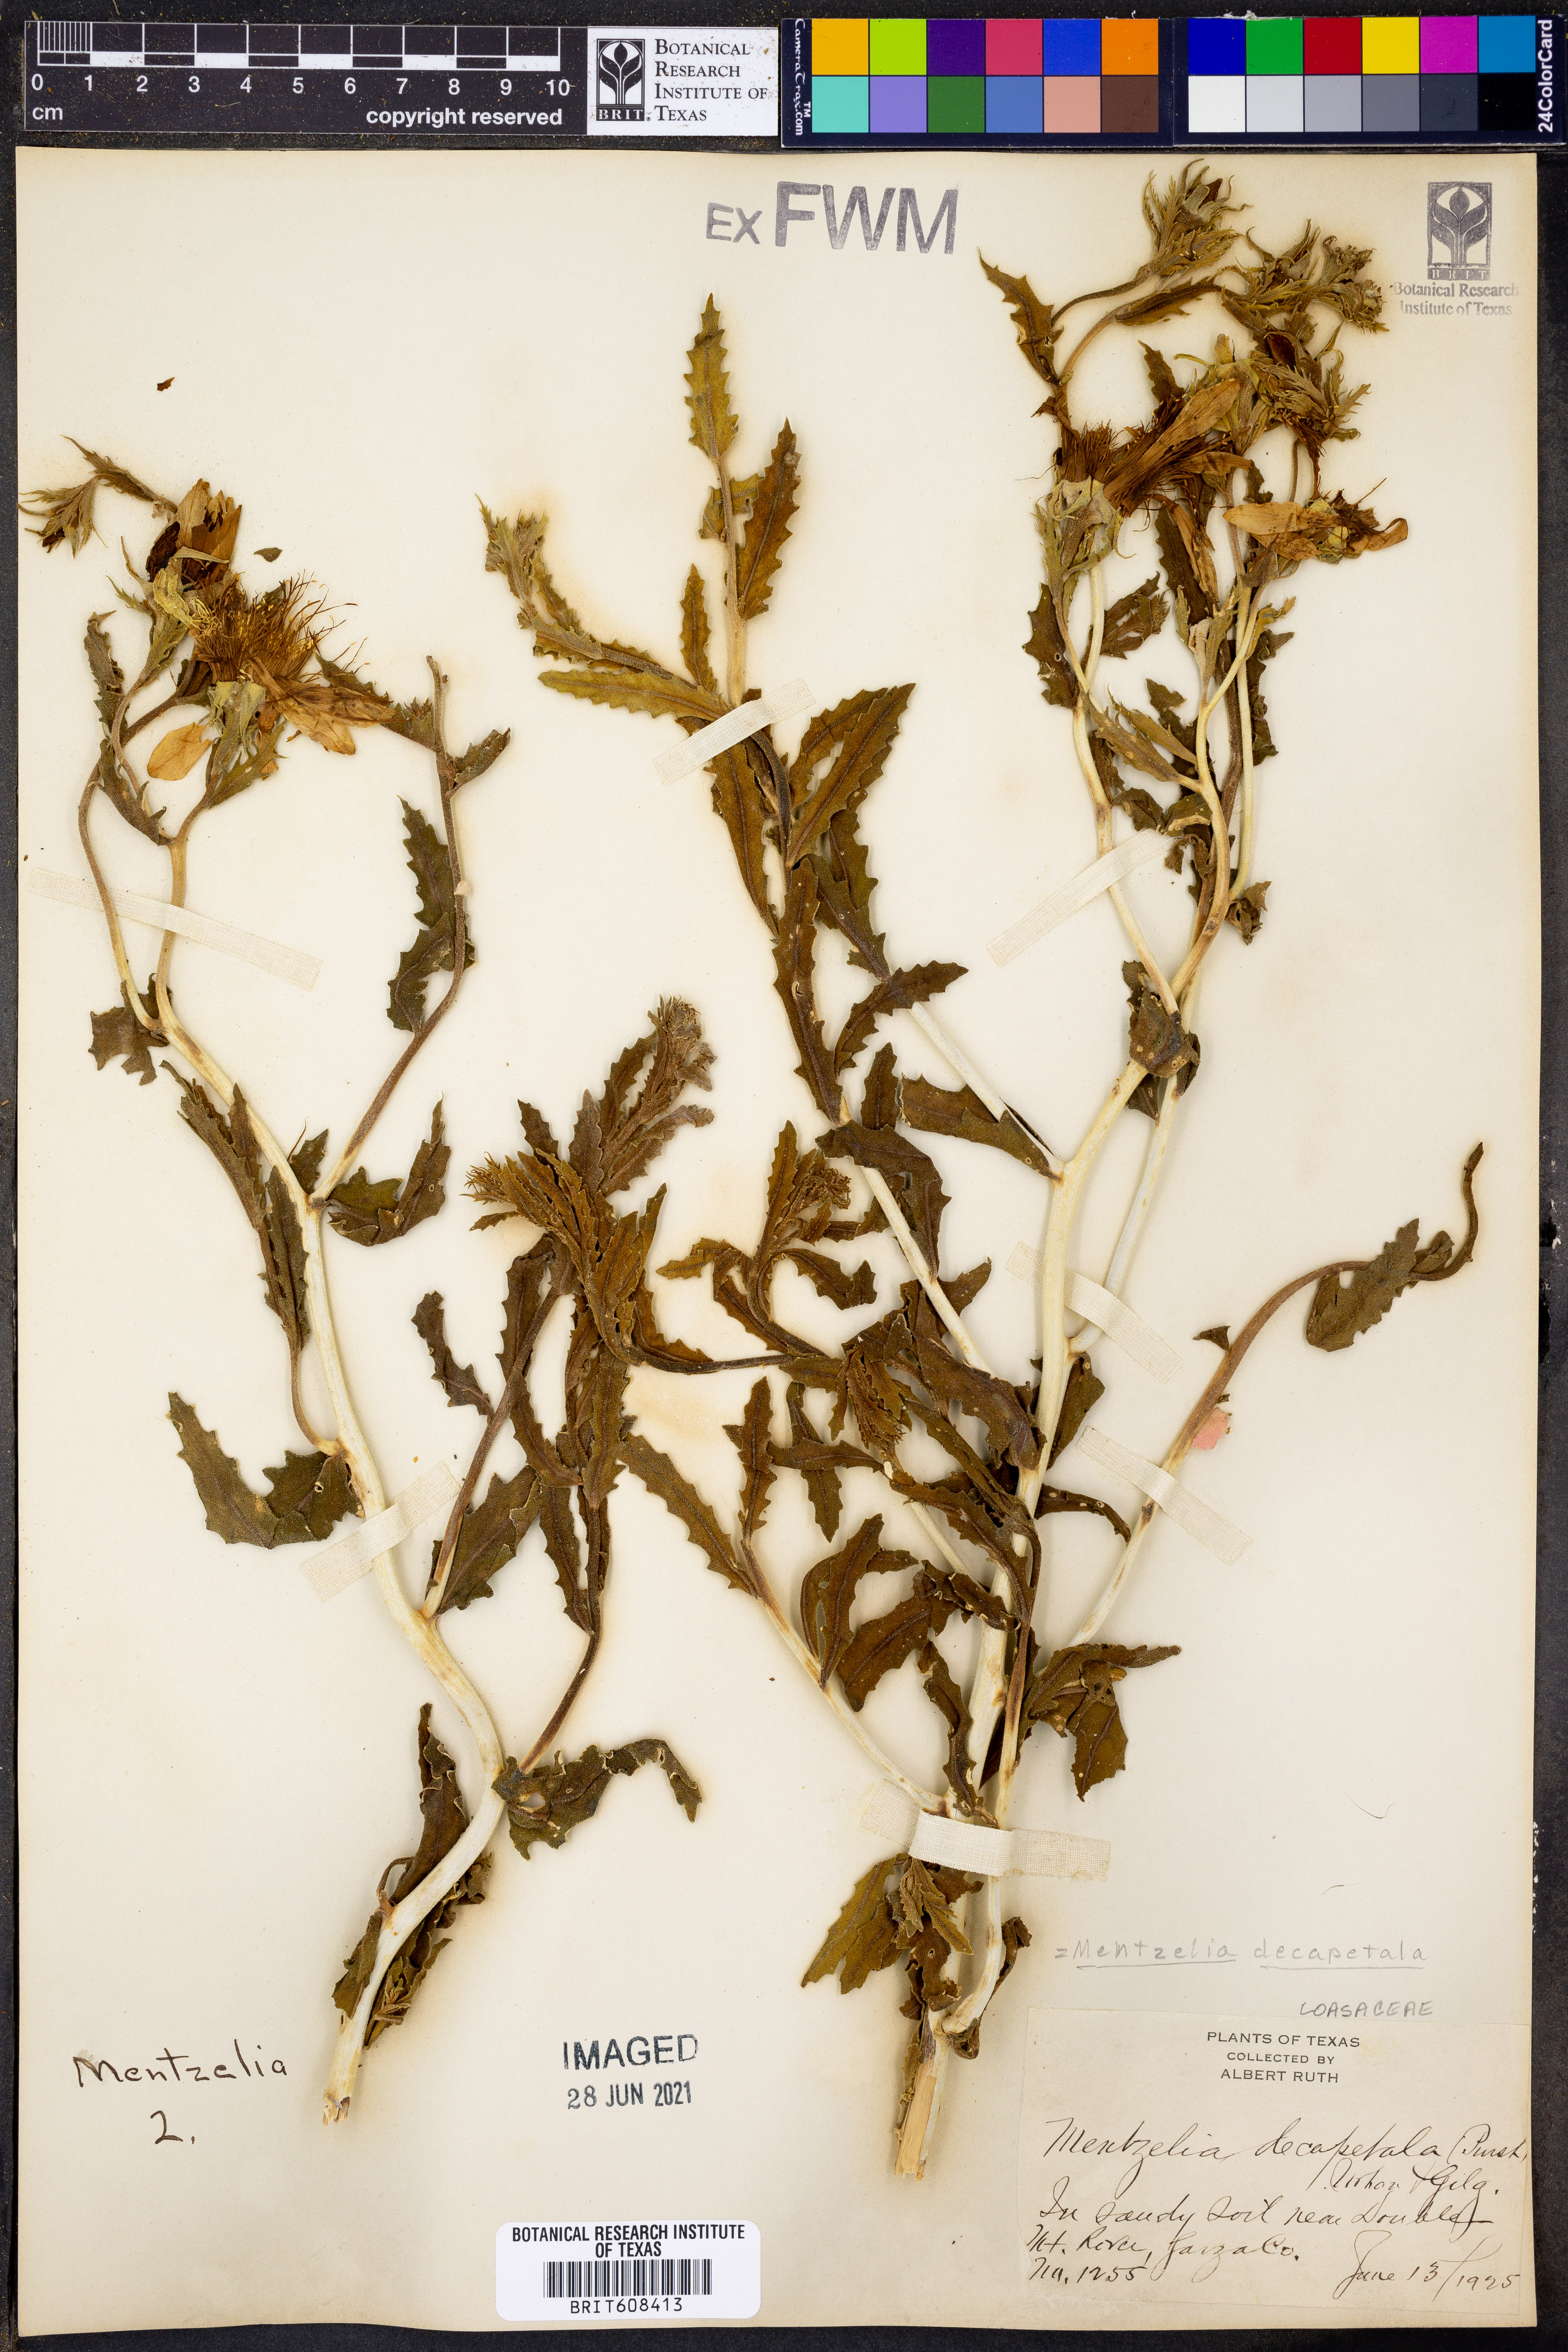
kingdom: Plantae
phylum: Tracheophyta
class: Magnoliopsida
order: Cornales
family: Loasaceae
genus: Mentzelia
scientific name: Mentzelia decapetala
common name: Gumbo-lily
